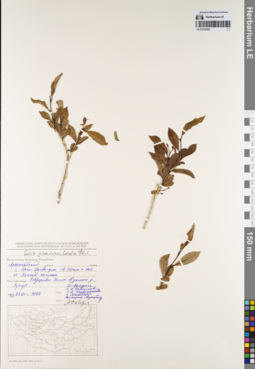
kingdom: Plantae
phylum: Tracheophyta
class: Magnoliopsida
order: Malpighiales
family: Salicaceae
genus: Salix
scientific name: Salix pseudopentandra
